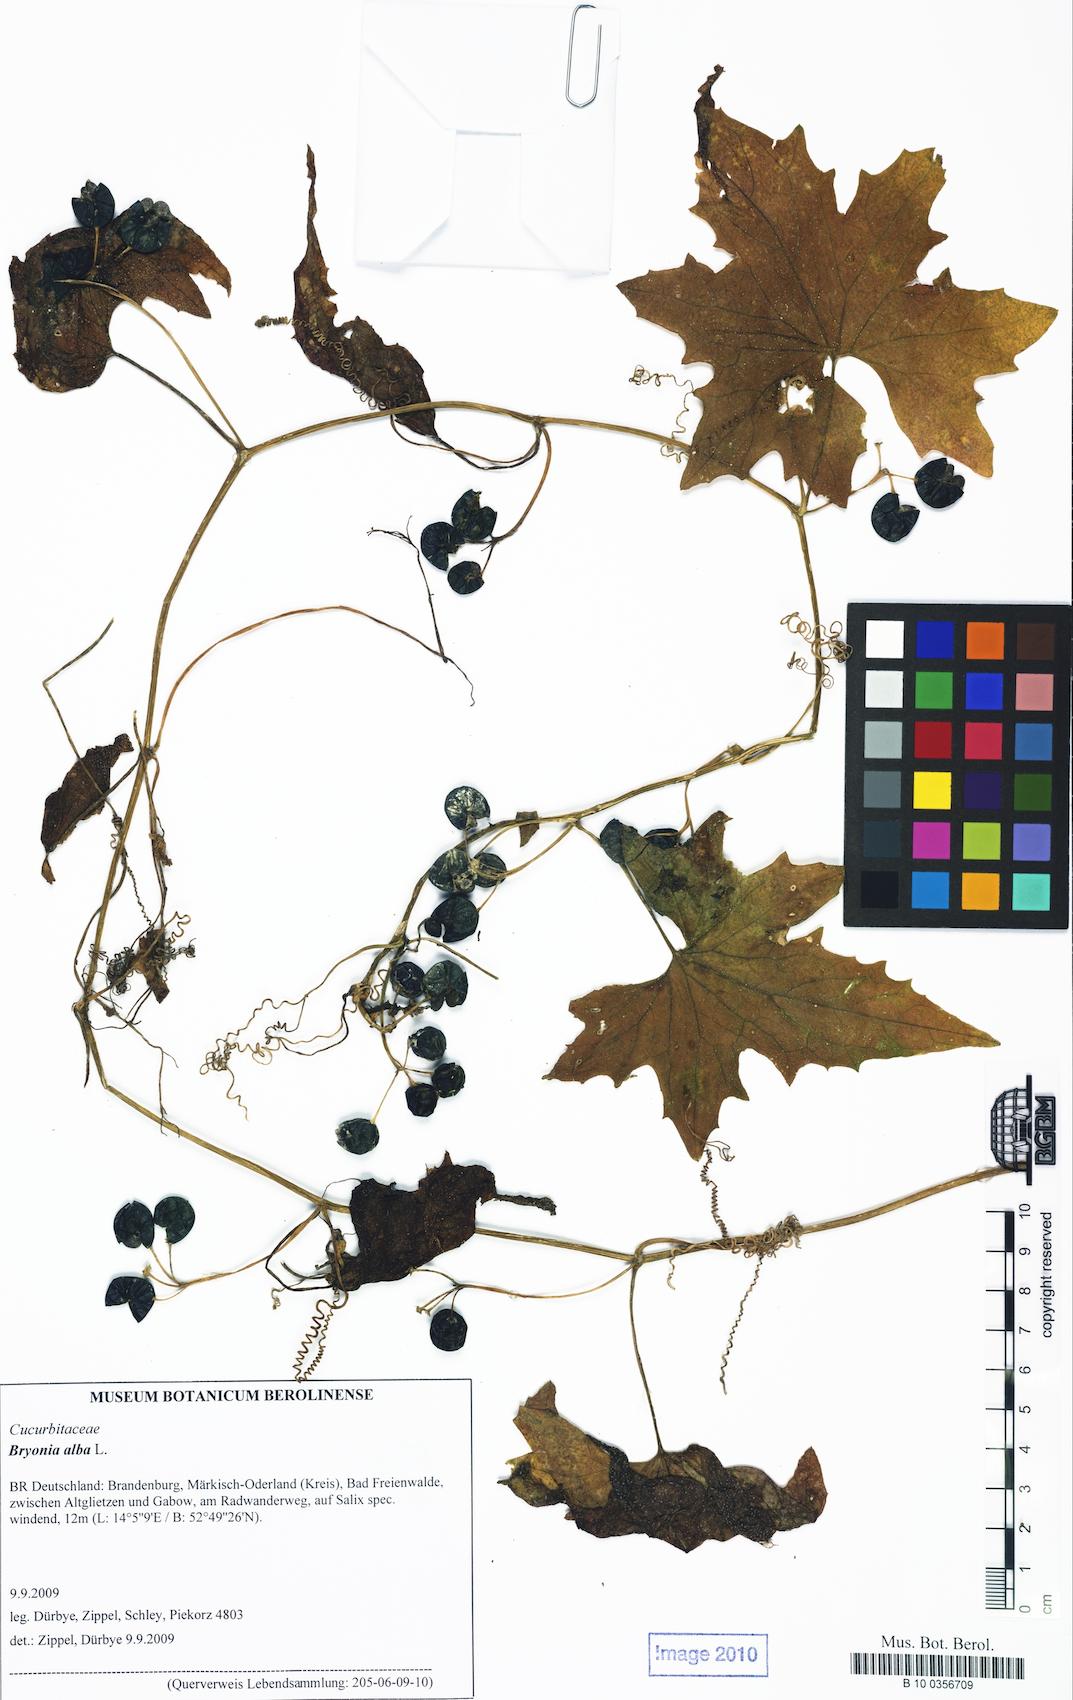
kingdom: Plantae
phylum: Tracheophyta
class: Magnoliopsida
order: Cucurbitales
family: Cucurbitaceae
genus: Bryonia
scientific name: Bryonia alba
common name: White bryony
